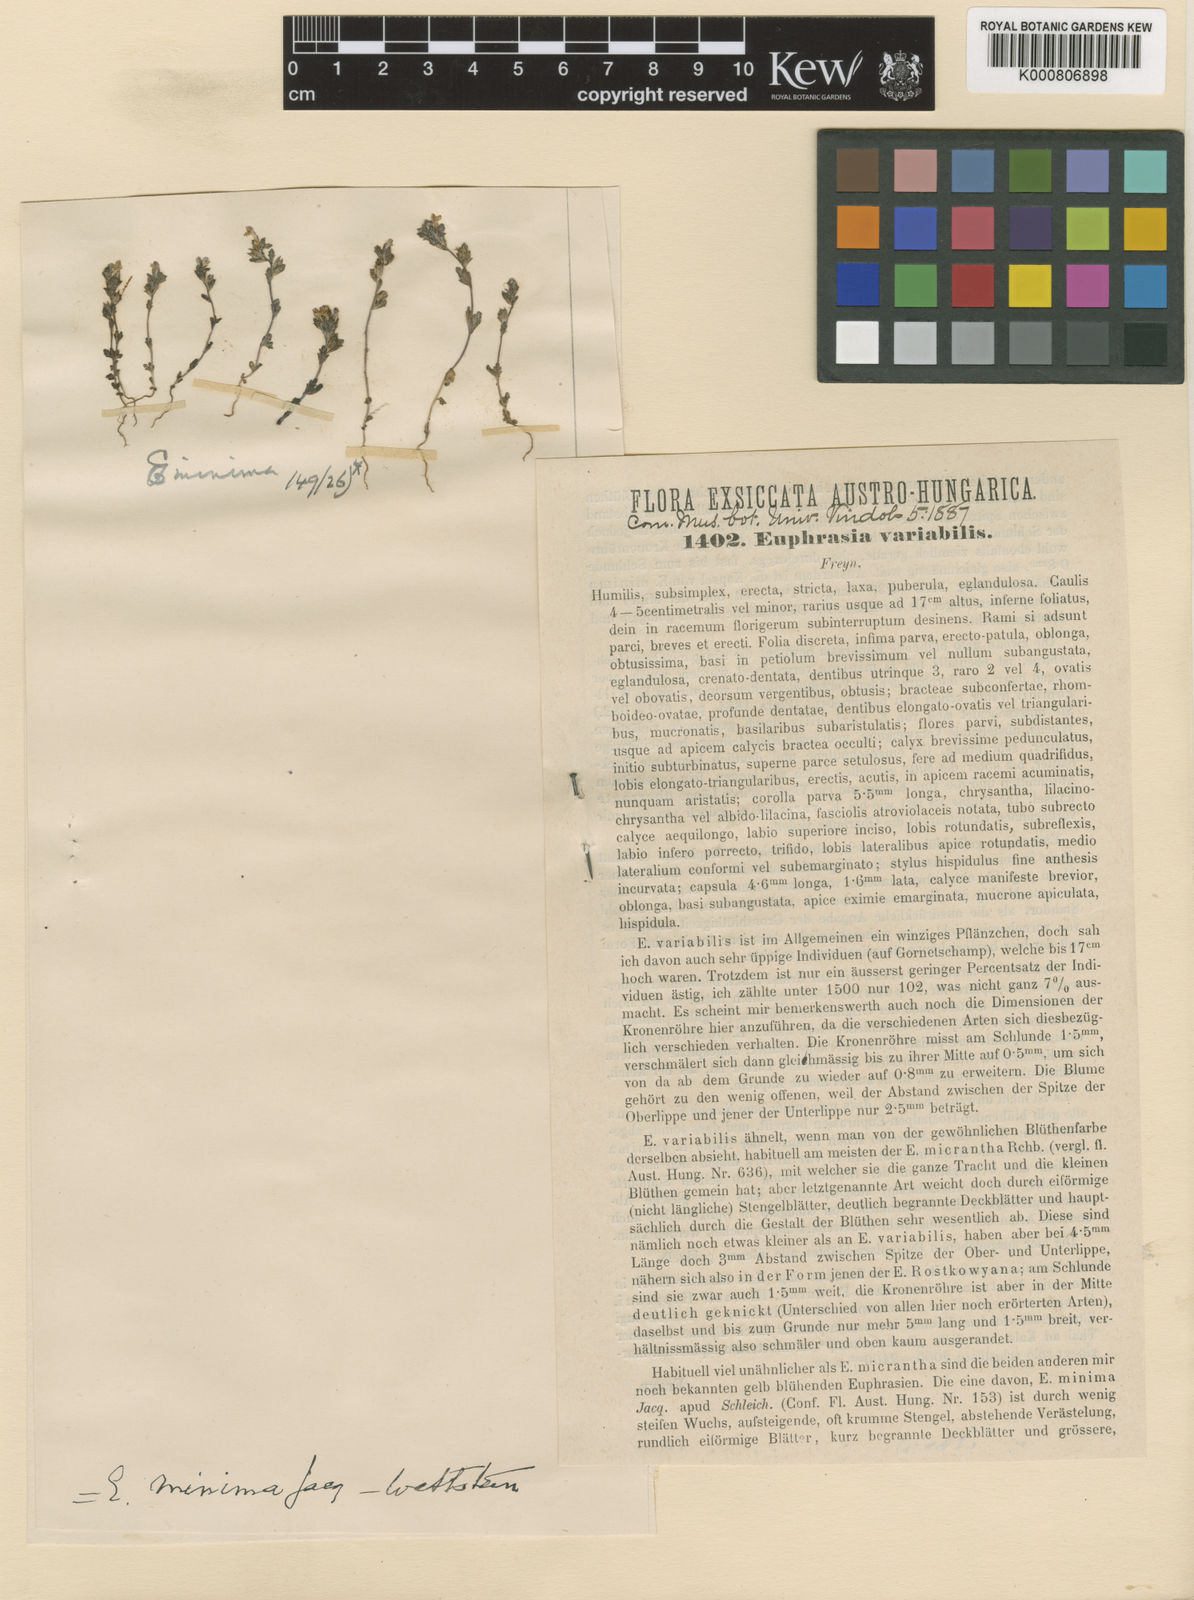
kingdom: Plantae
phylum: Tracheophyta
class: Magnoliopsida
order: Lamiales
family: Orobanchaceae
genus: Euphrasia
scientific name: Euphrasia
